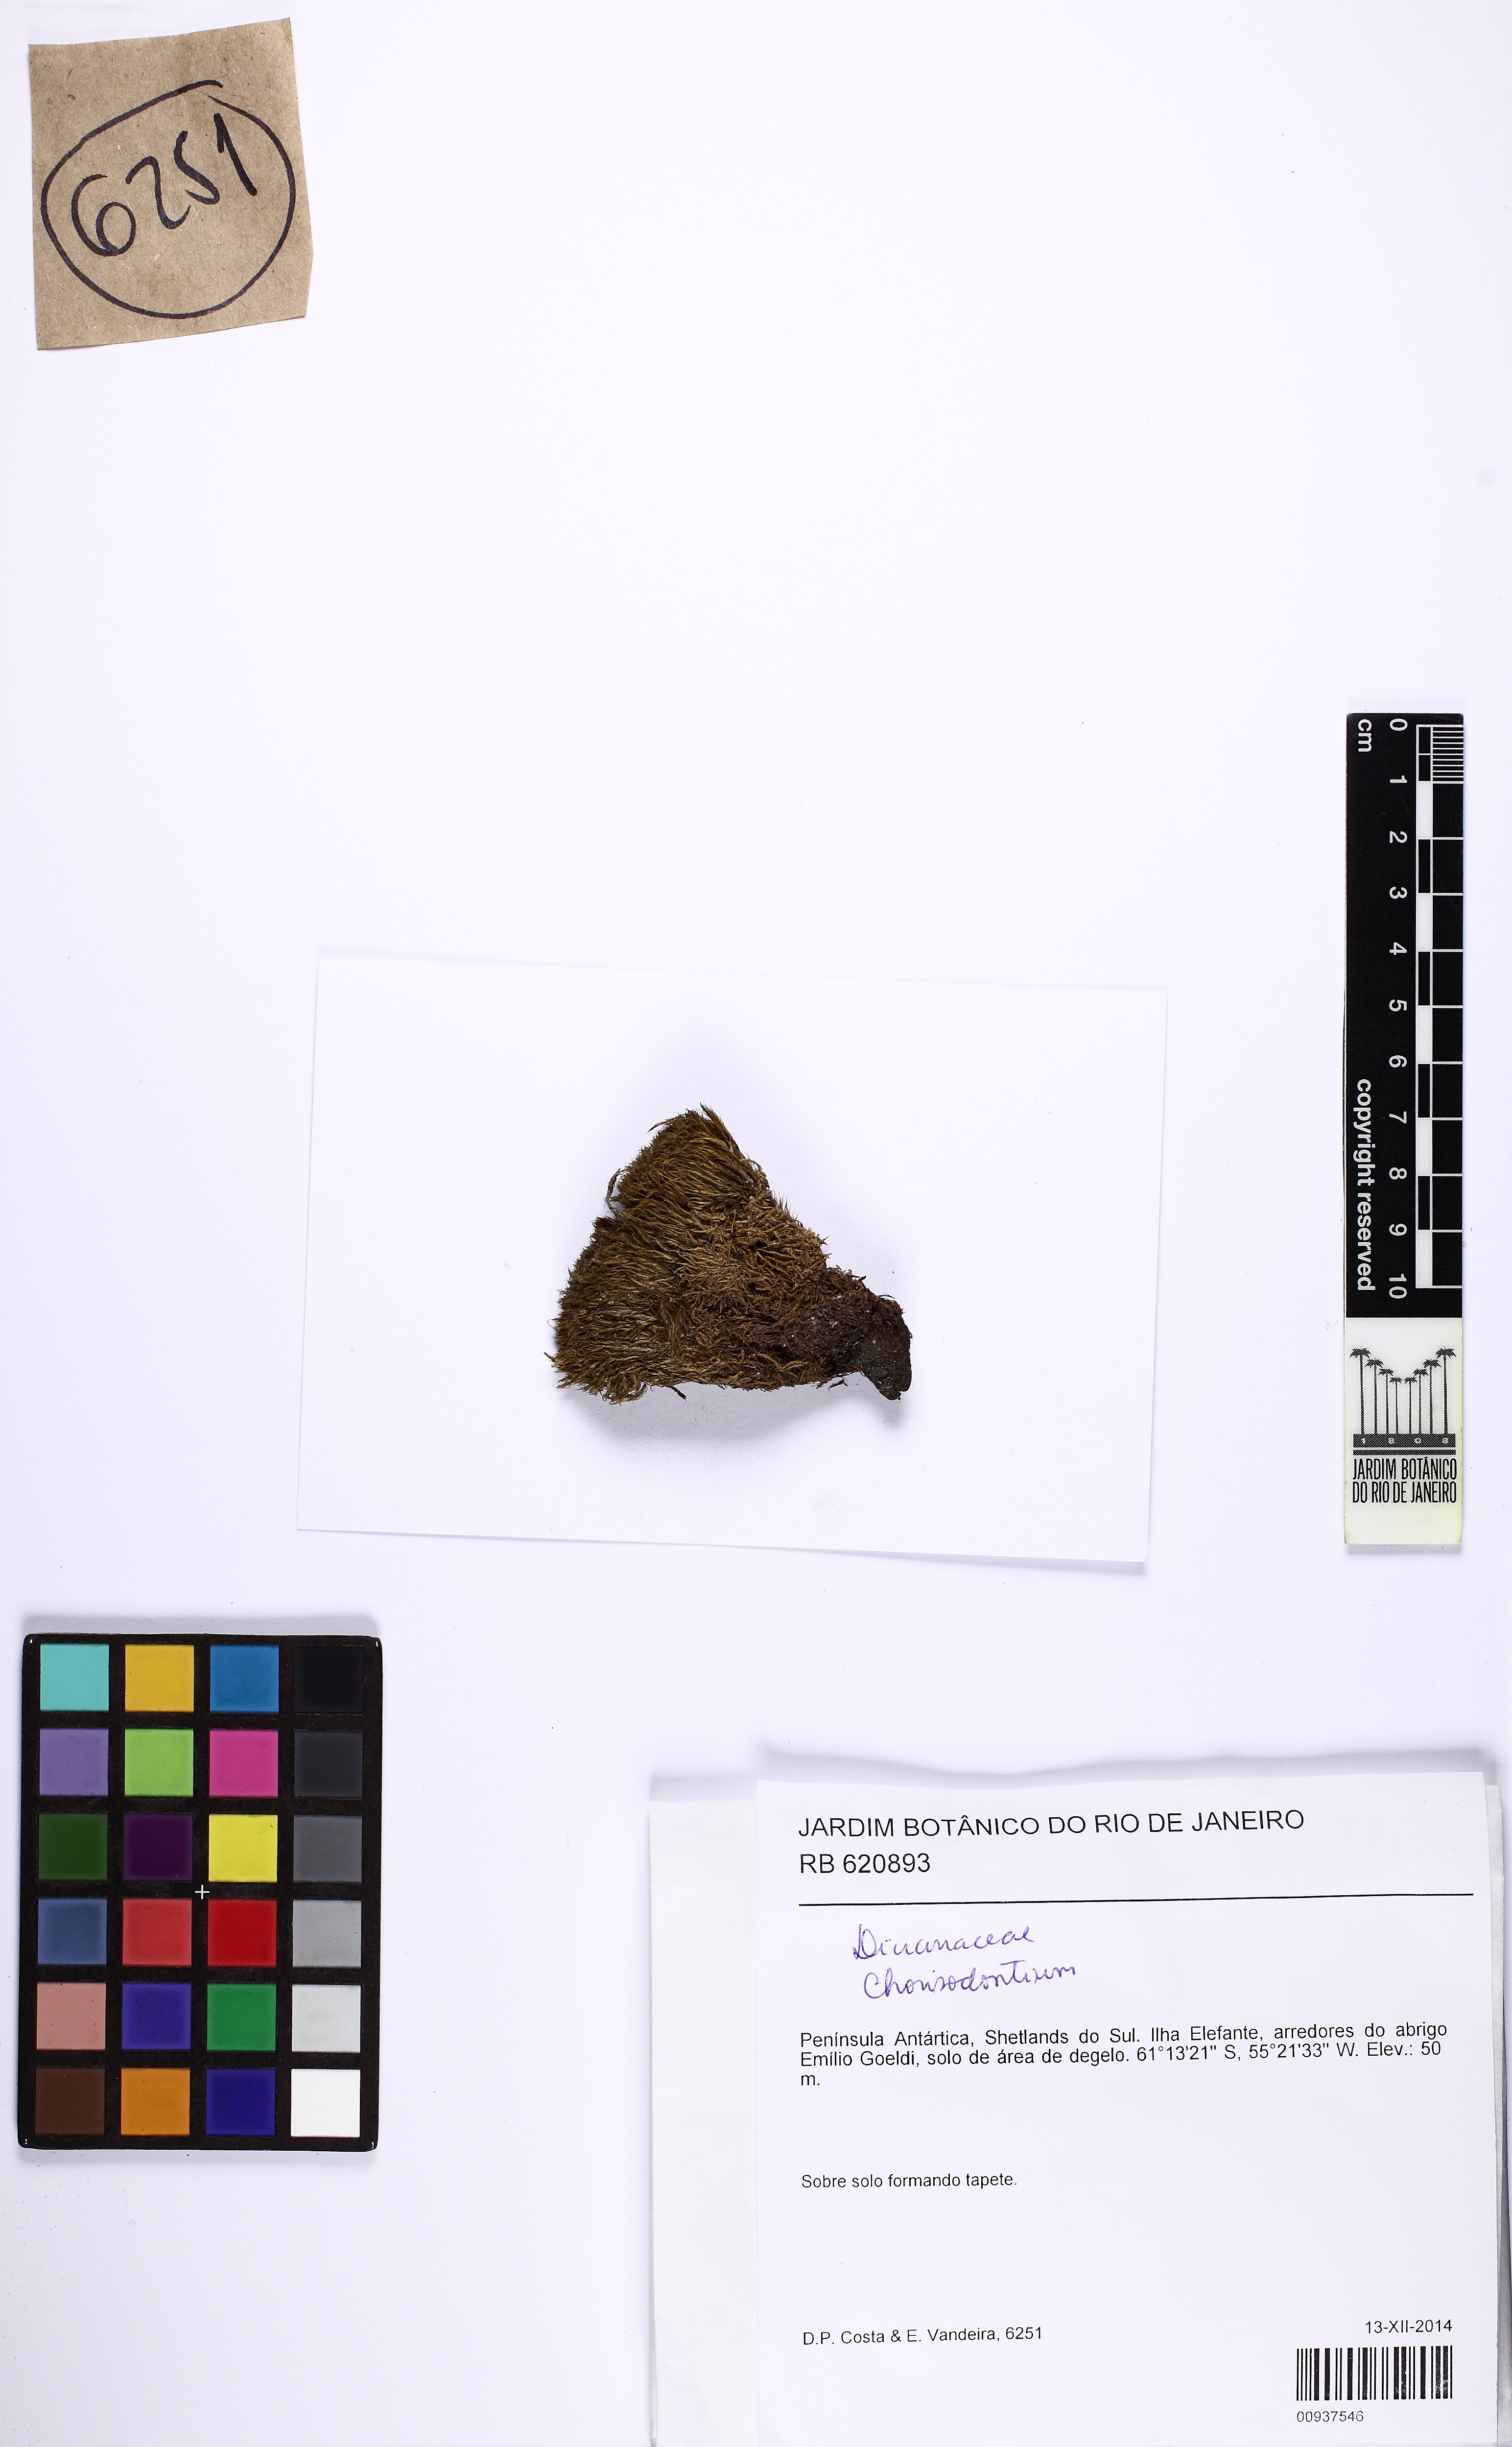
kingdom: Plantae
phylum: Bryophyta
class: Bryopsida
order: Dicranales
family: Dicranaceae
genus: Chorisodontium
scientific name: Chorisodontium
